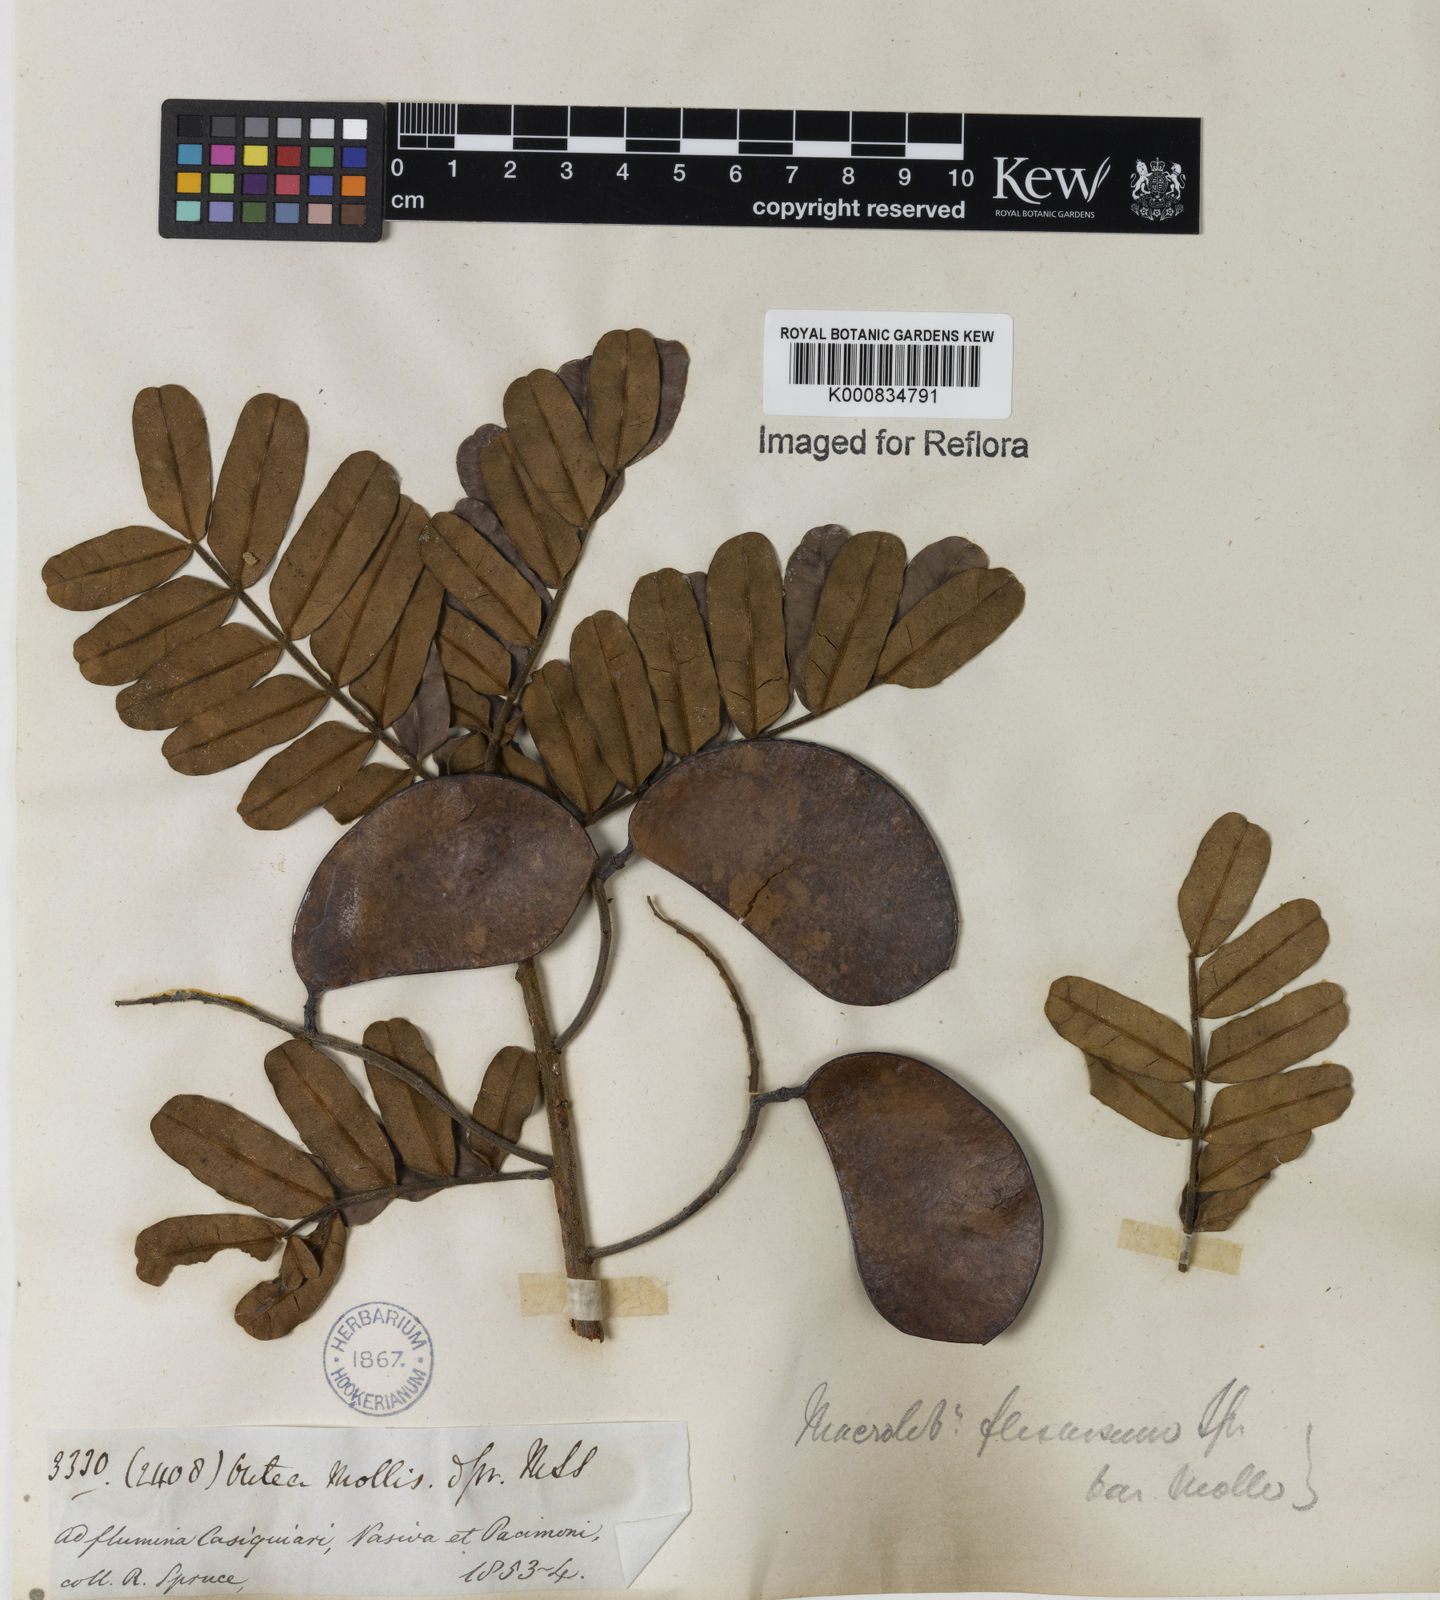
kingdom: Plantae
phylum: Tracheophyta
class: Magnoliopsida
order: Fabales
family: Fabaceae
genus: Macrolobium
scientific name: Macrolobium
